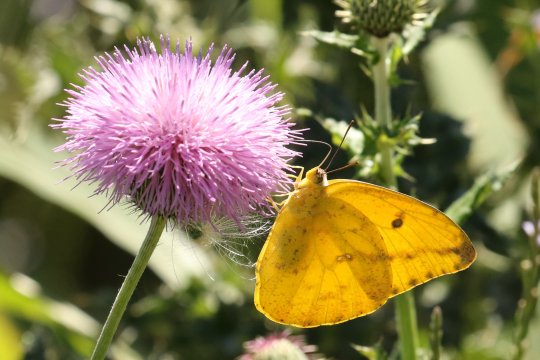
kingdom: Animalia
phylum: Arthropoda
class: Insecta
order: Lepidoptera
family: Pieridae
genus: Phoebis
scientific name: Phoebis agarithe
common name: Large Orange Sulphur
